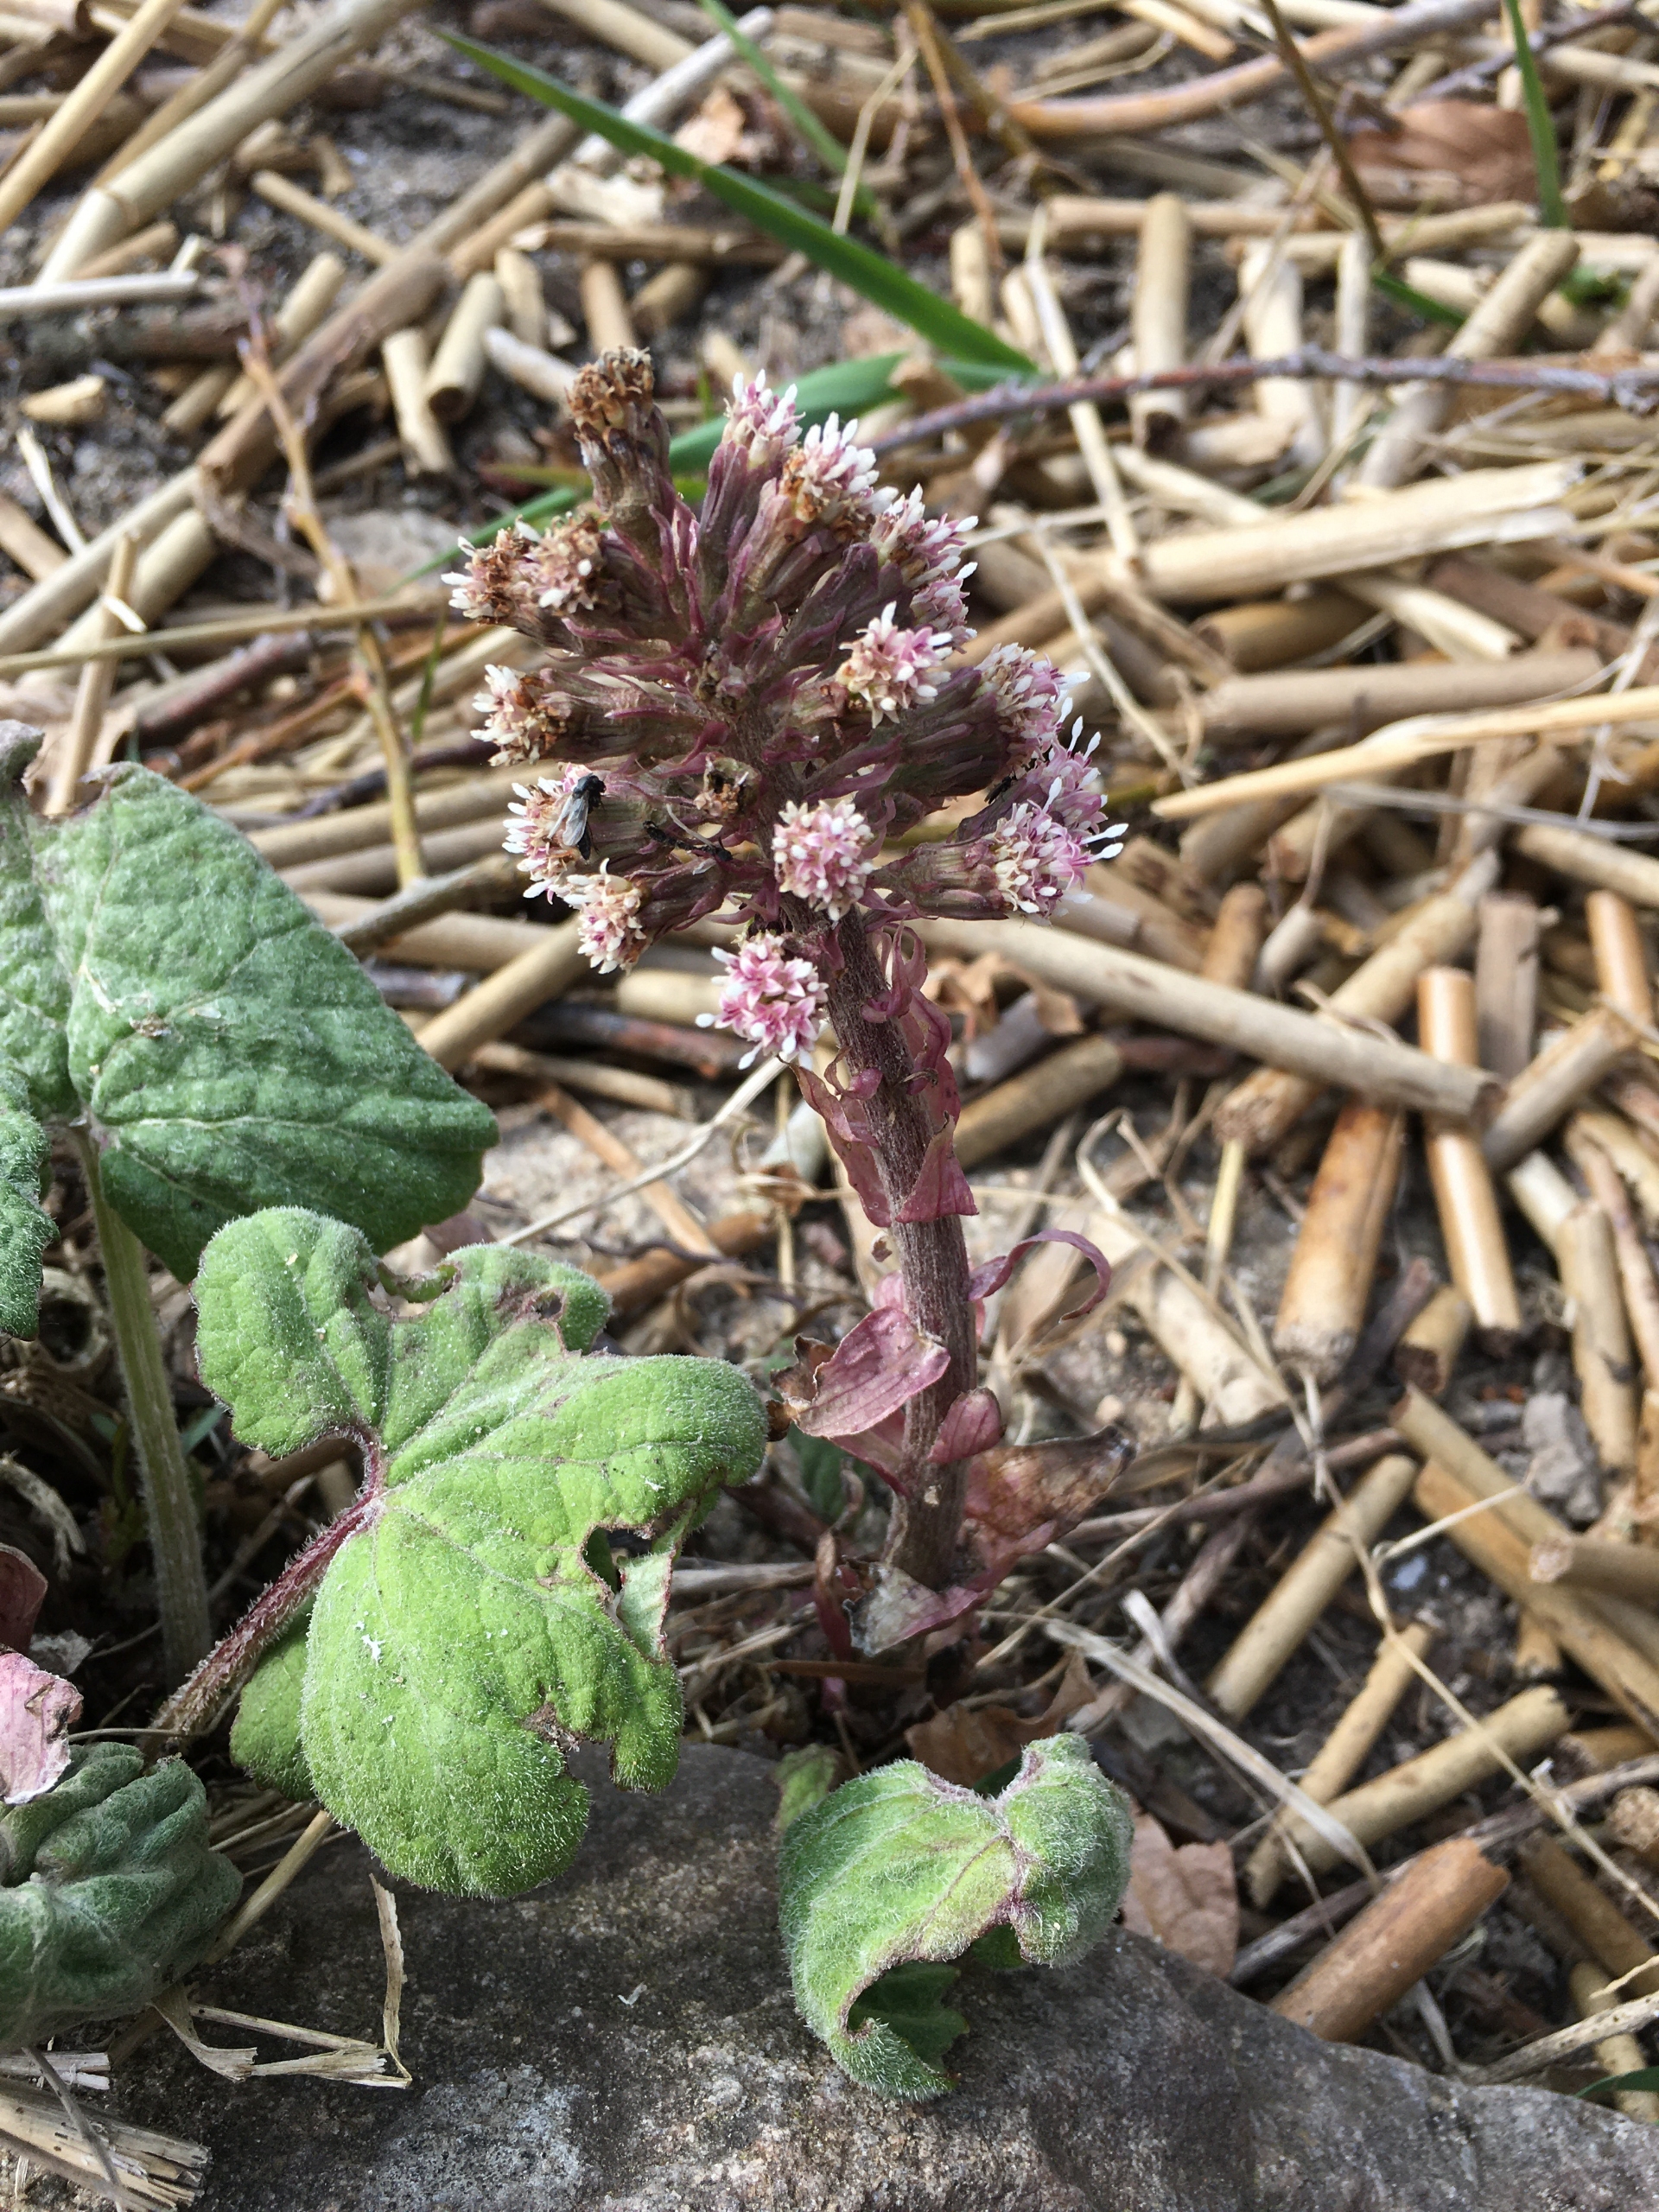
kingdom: Plantae
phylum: Tracheophyta
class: Magnoliopsida
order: Asterales
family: Asteraceae
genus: Petasites
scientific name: Petasites hybridus
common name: Rød hestehov
